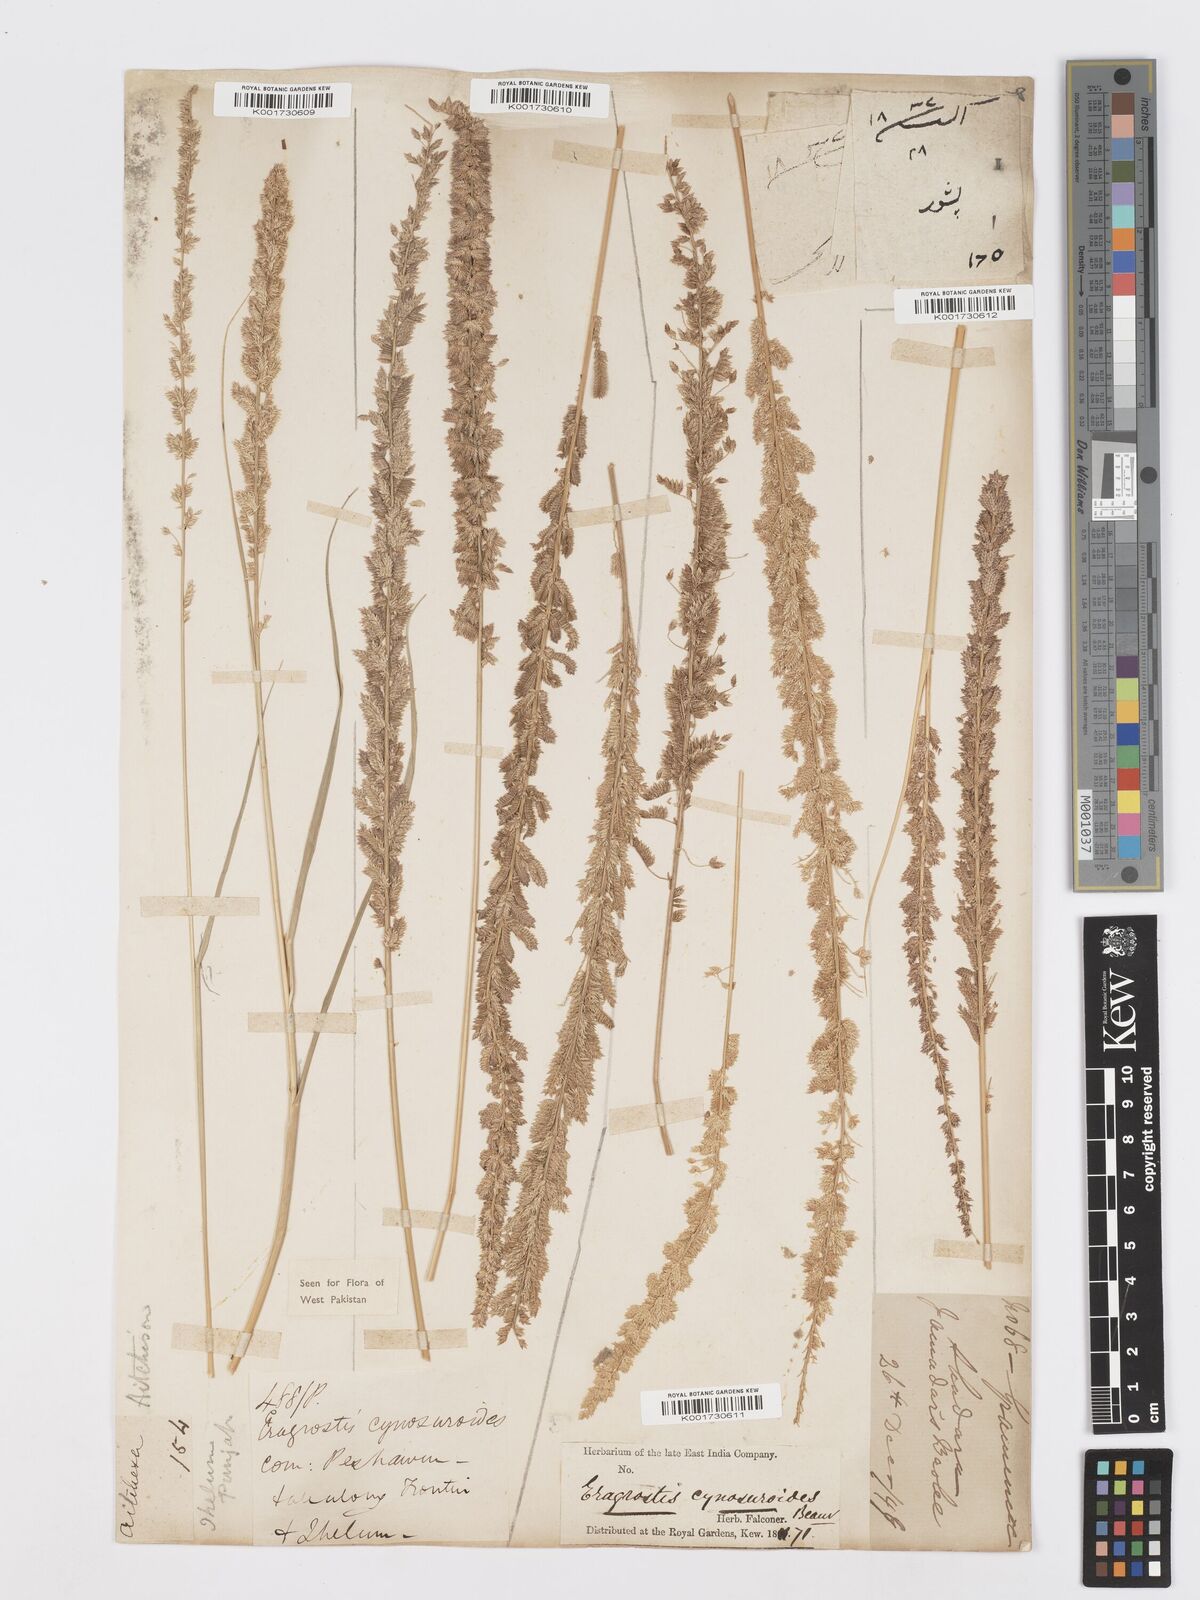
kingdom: Plantae
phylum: Tracheophyta
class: Liliopsida
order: Poales
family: Poaceae
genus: Desmostachya
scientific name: Desmostachya bipinnata
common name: Crowfoot grass
